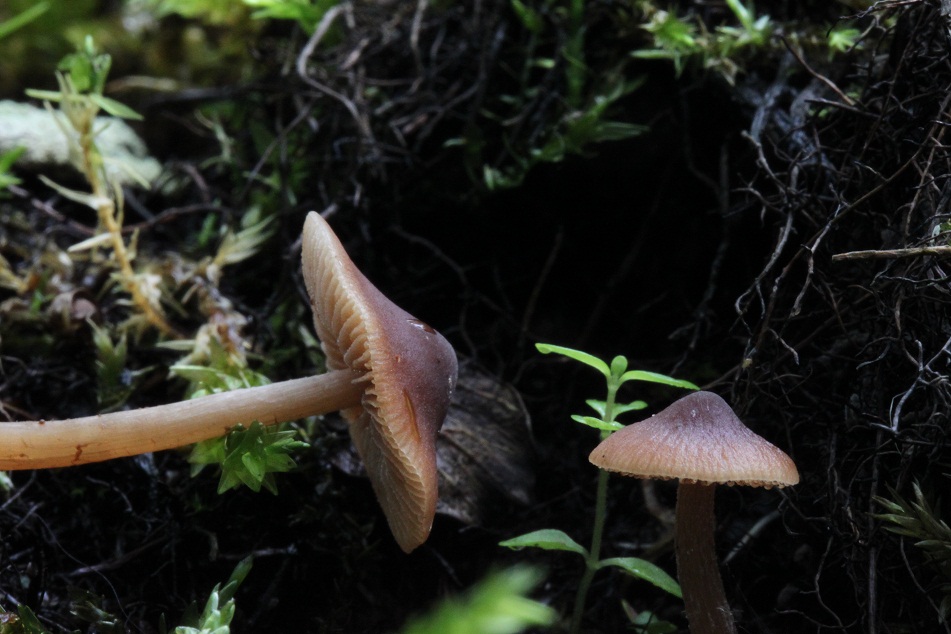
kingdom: Fungi
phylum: Basidiomycota
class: Agaricomycetes
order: Agaricales
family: Hymenogastraceae
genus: Naucoria
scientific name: Naucoria salicis
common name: pile-knaphat
